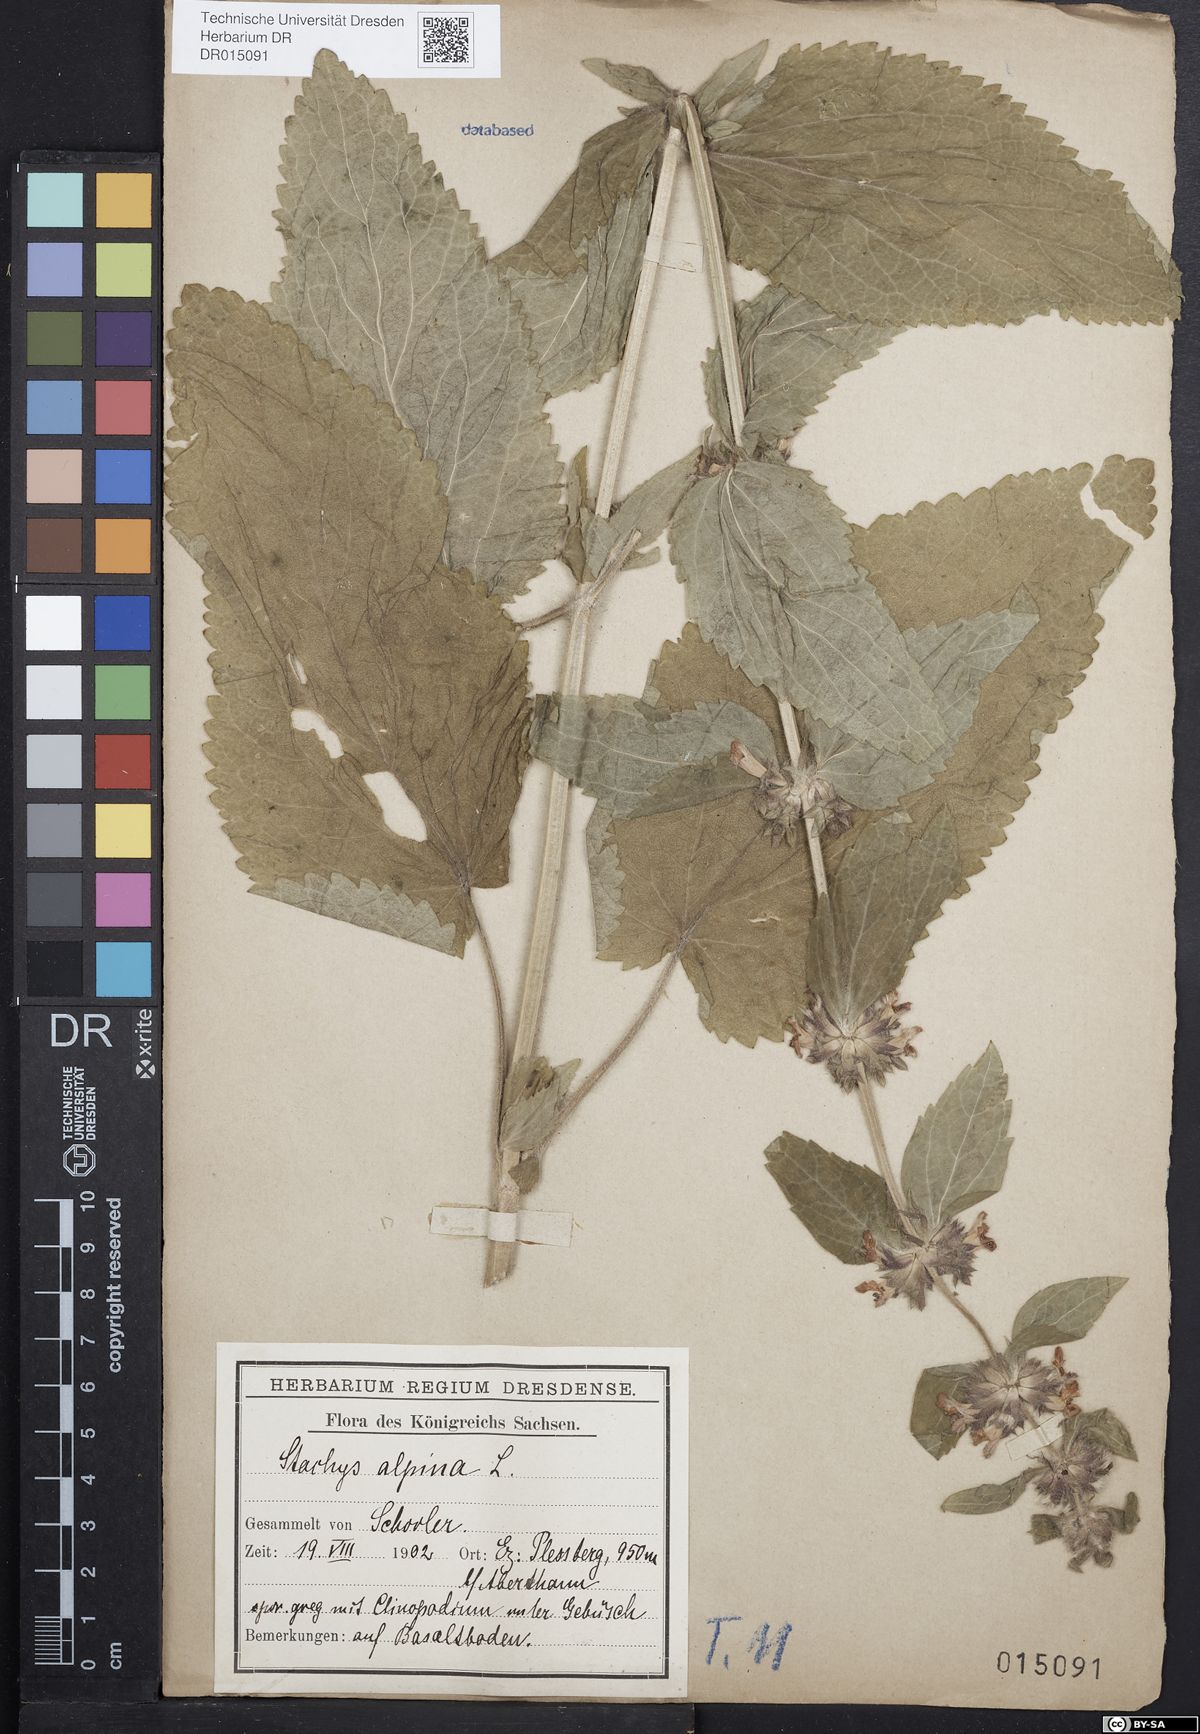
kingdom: Plantae
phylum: Tracheophyta
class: Magnoliopsida
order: Lamiales
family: Lamiaceae
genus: Stachys
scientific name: Stachys alpina
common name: Limestone woundwort
